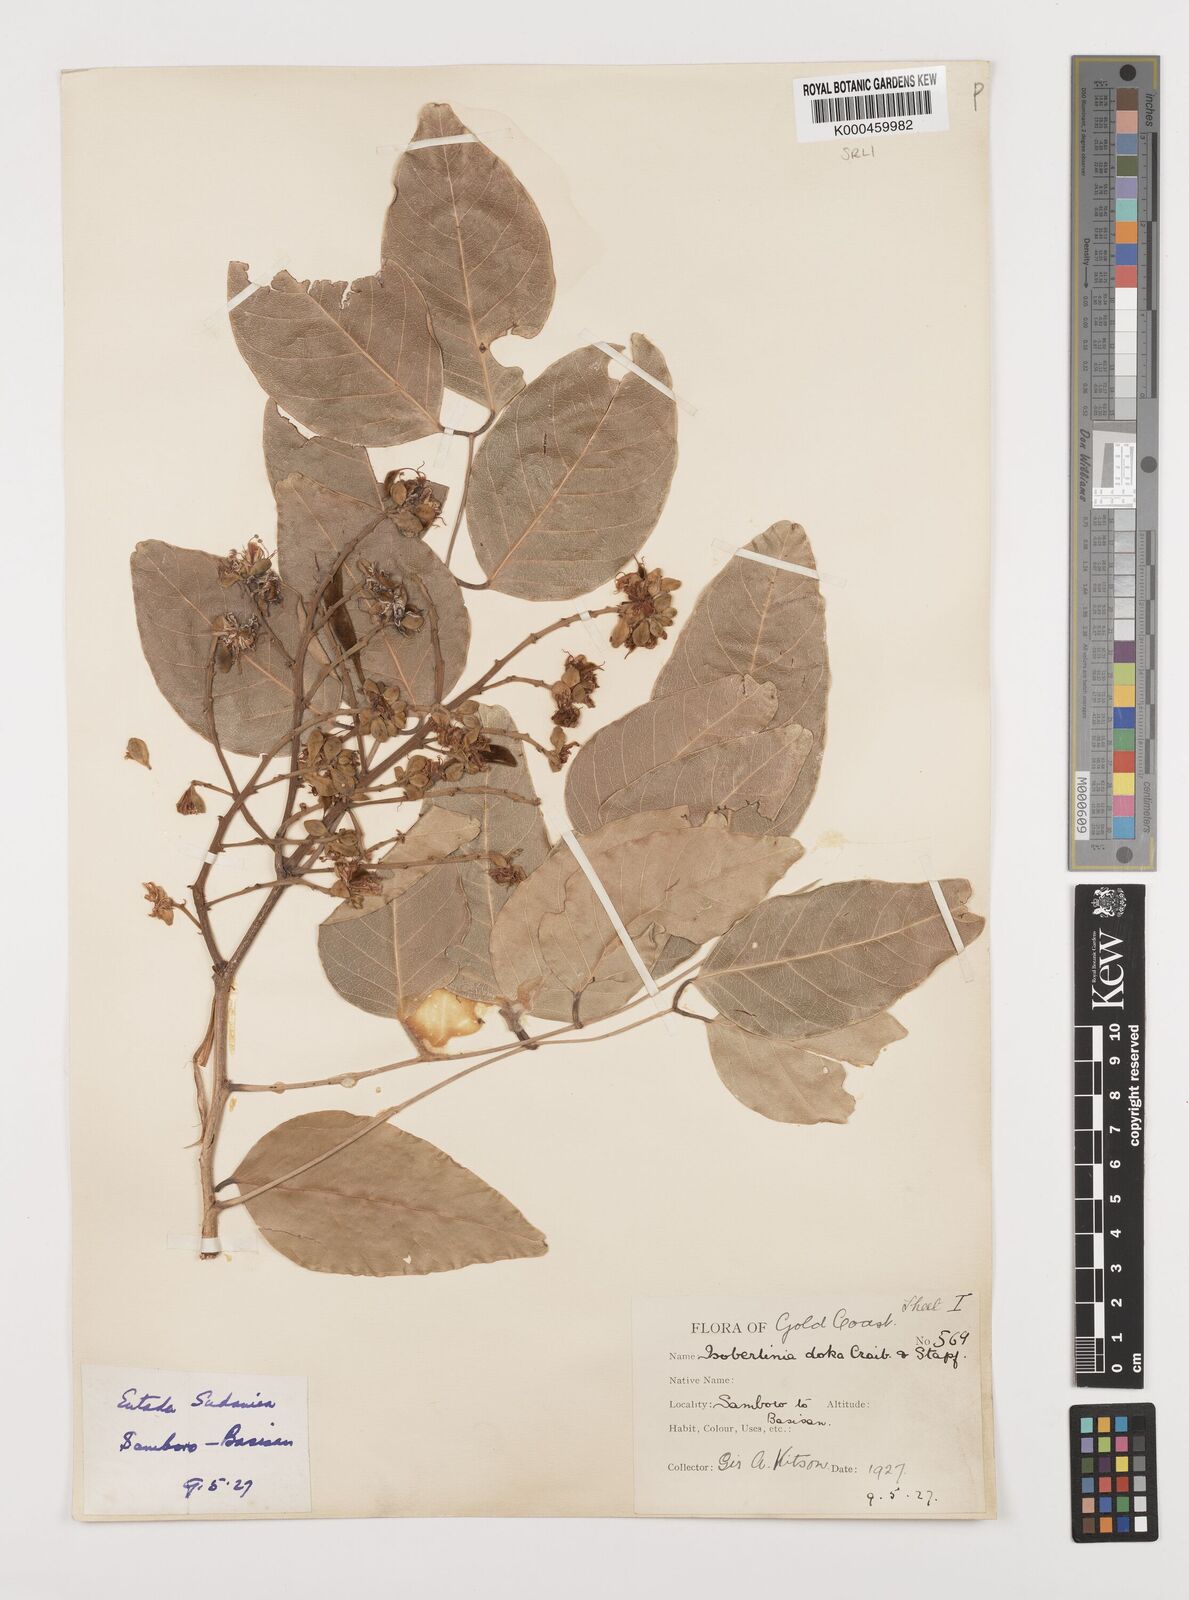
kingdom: Plantae
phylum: Tracheophyta
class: Magnoliopsida
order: Fabales
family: Fabaceae
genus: Isoberlinia
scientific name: Isoberlinia doka
